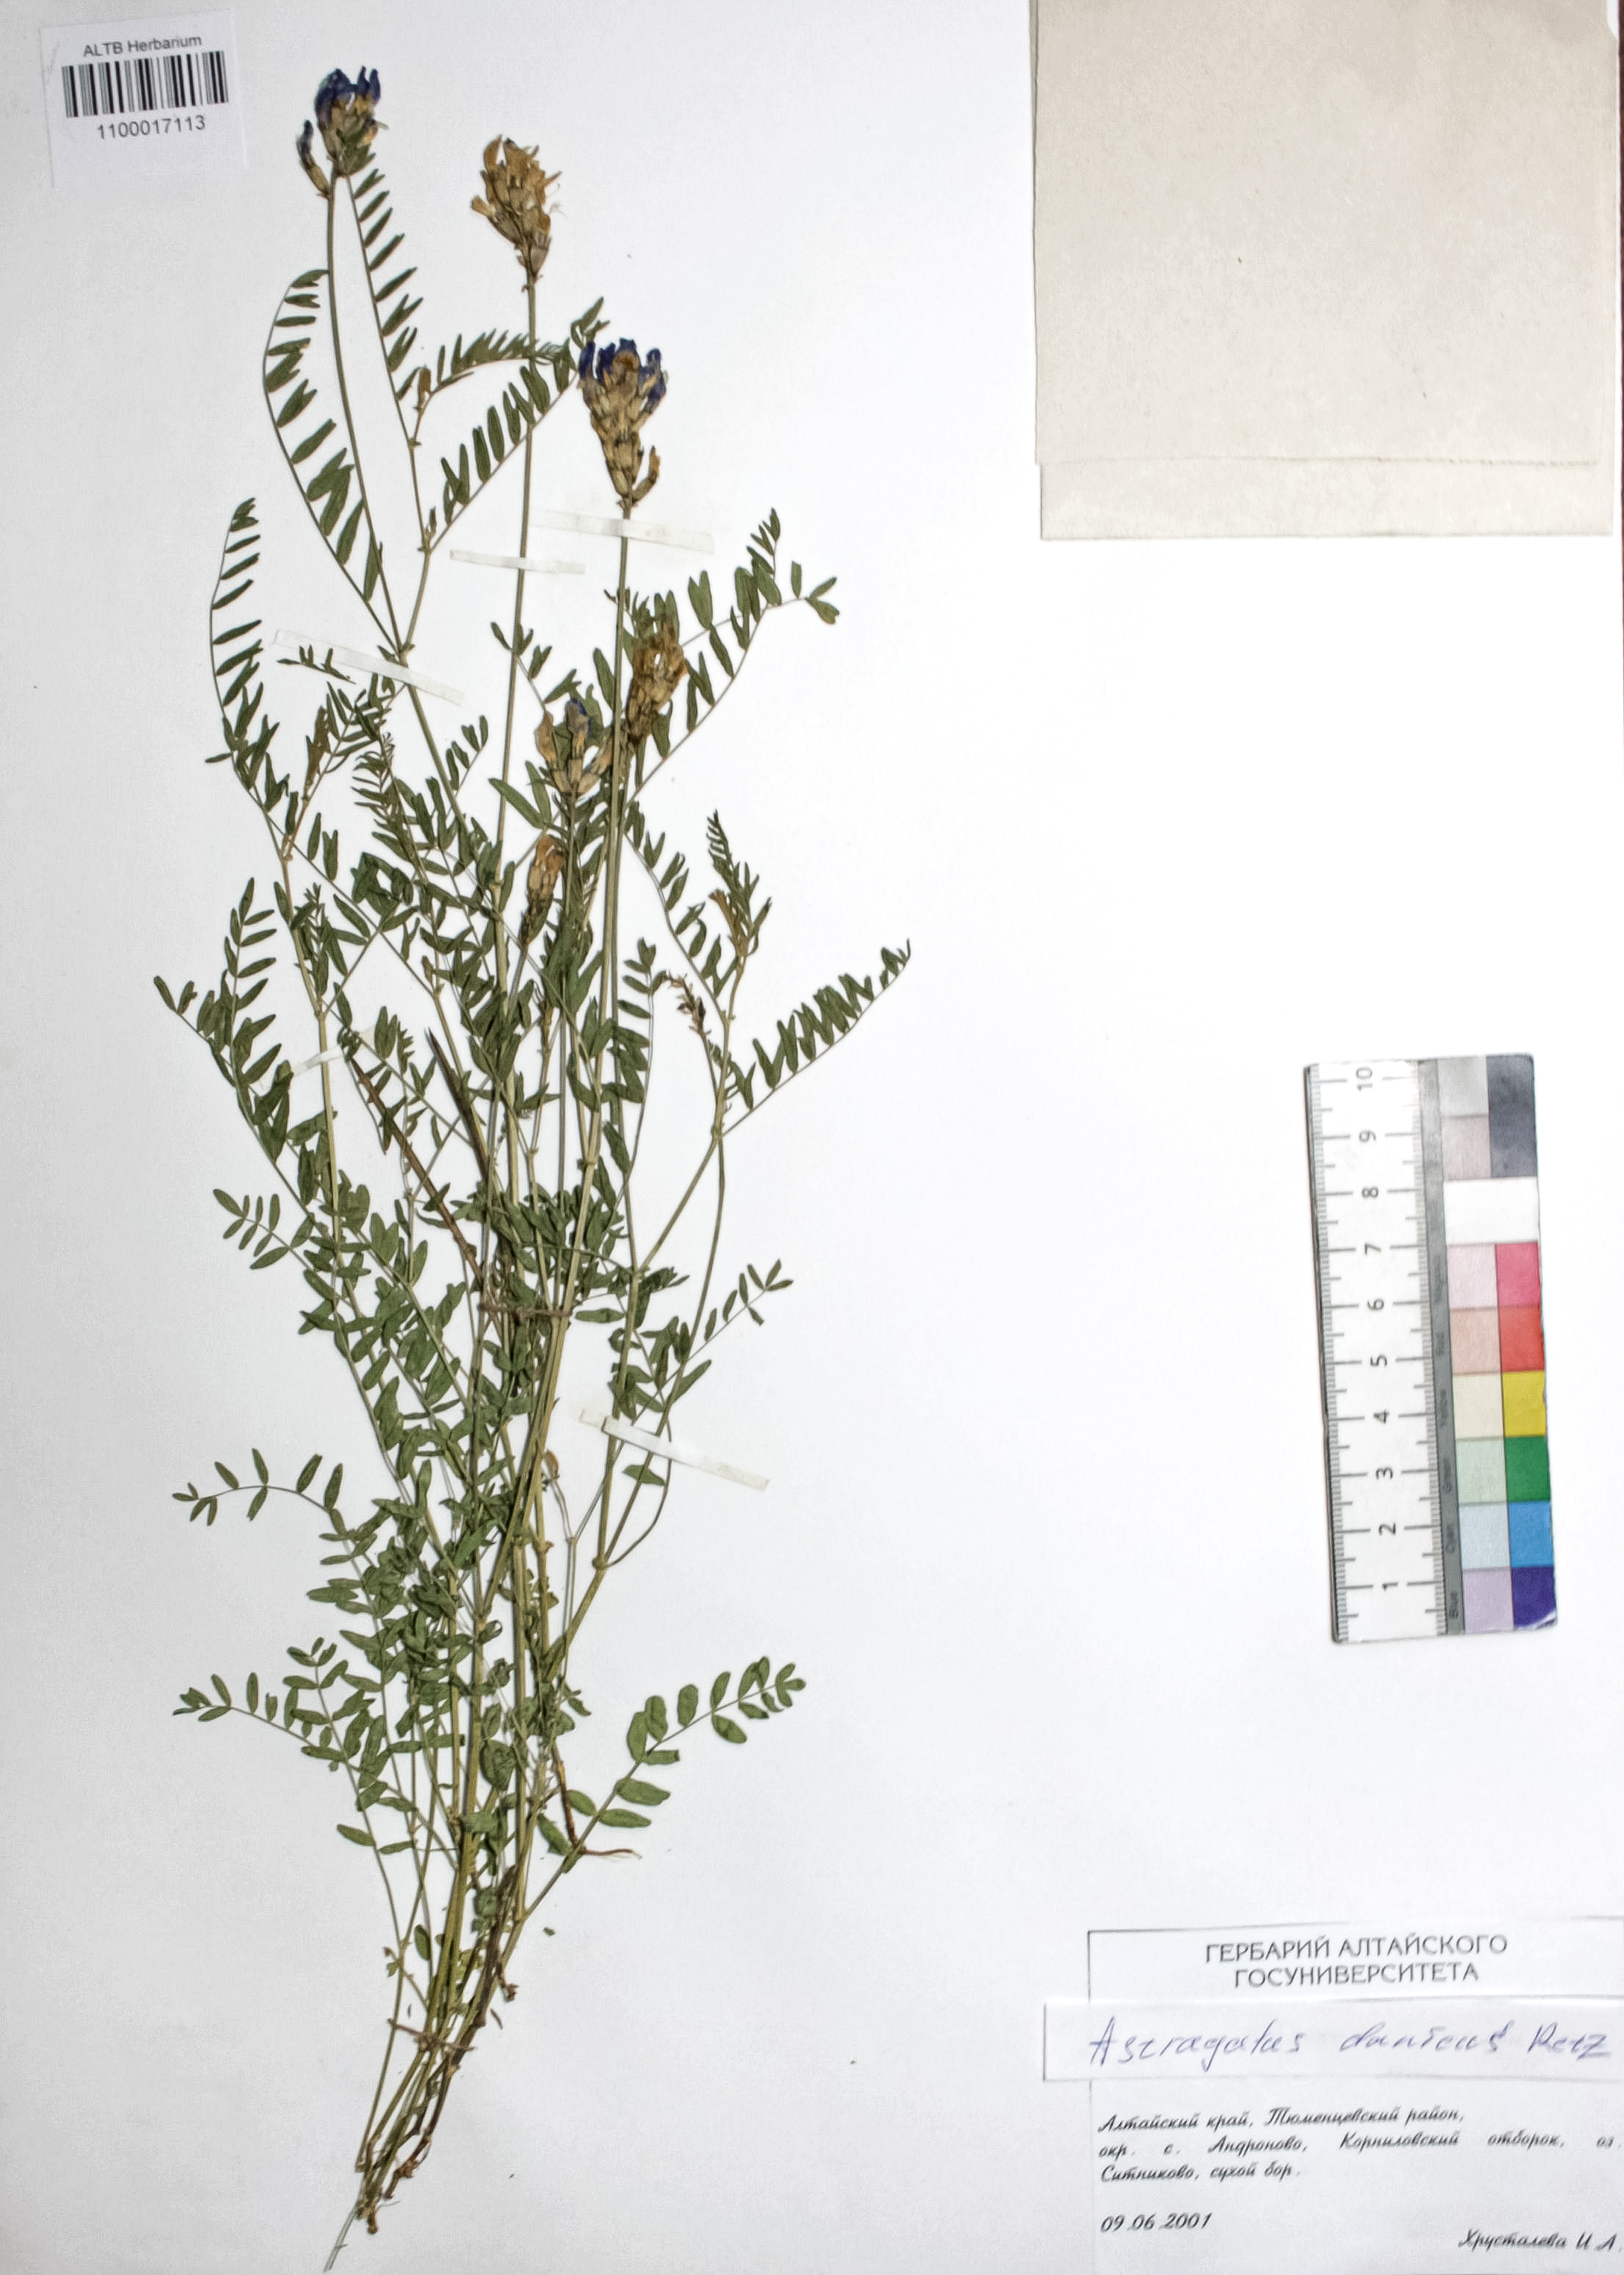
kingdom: Plantae
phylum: Tracheophyta
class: Magnoliopsida
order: Fabales
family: Fabaceae
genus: Astragalus
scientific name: Astragalus danicus
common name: Purple milk-vetch
